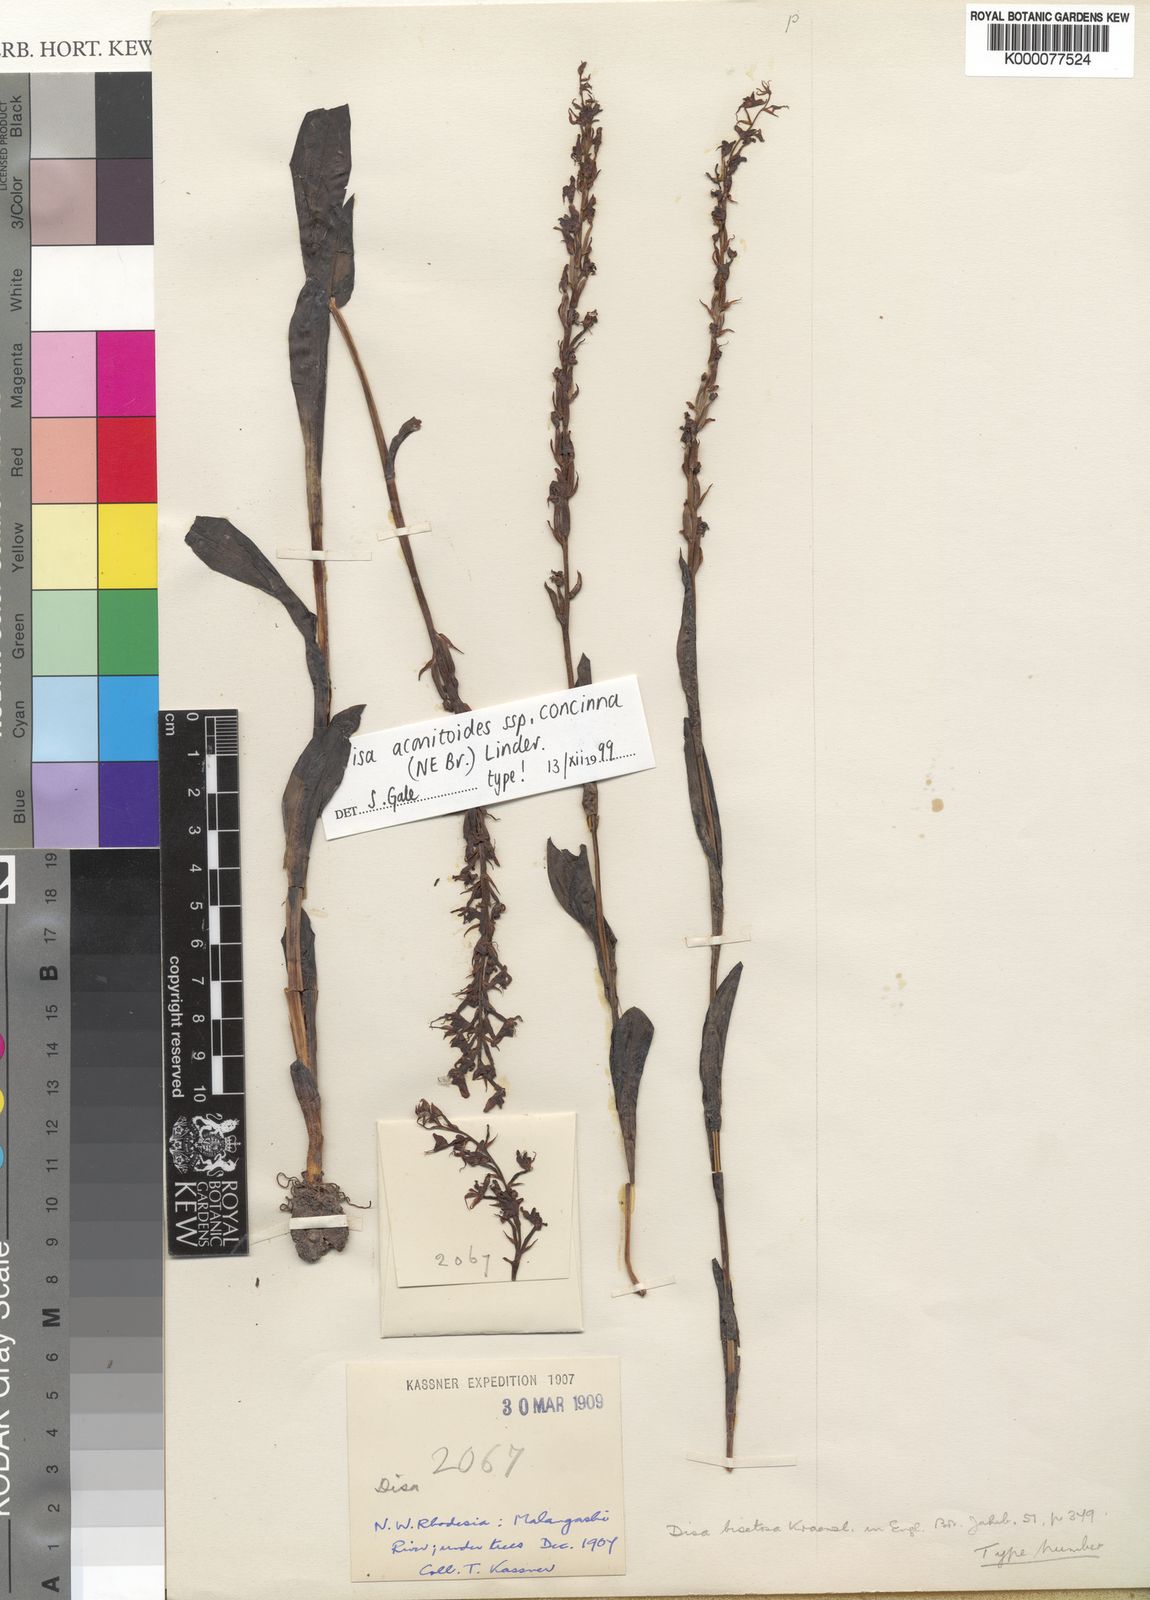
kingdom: Plantae
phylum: Tracheophyta
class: Liliopsida
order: Asparagales
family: Orchidaceae
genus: Disa
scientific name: Disa aconitoides
